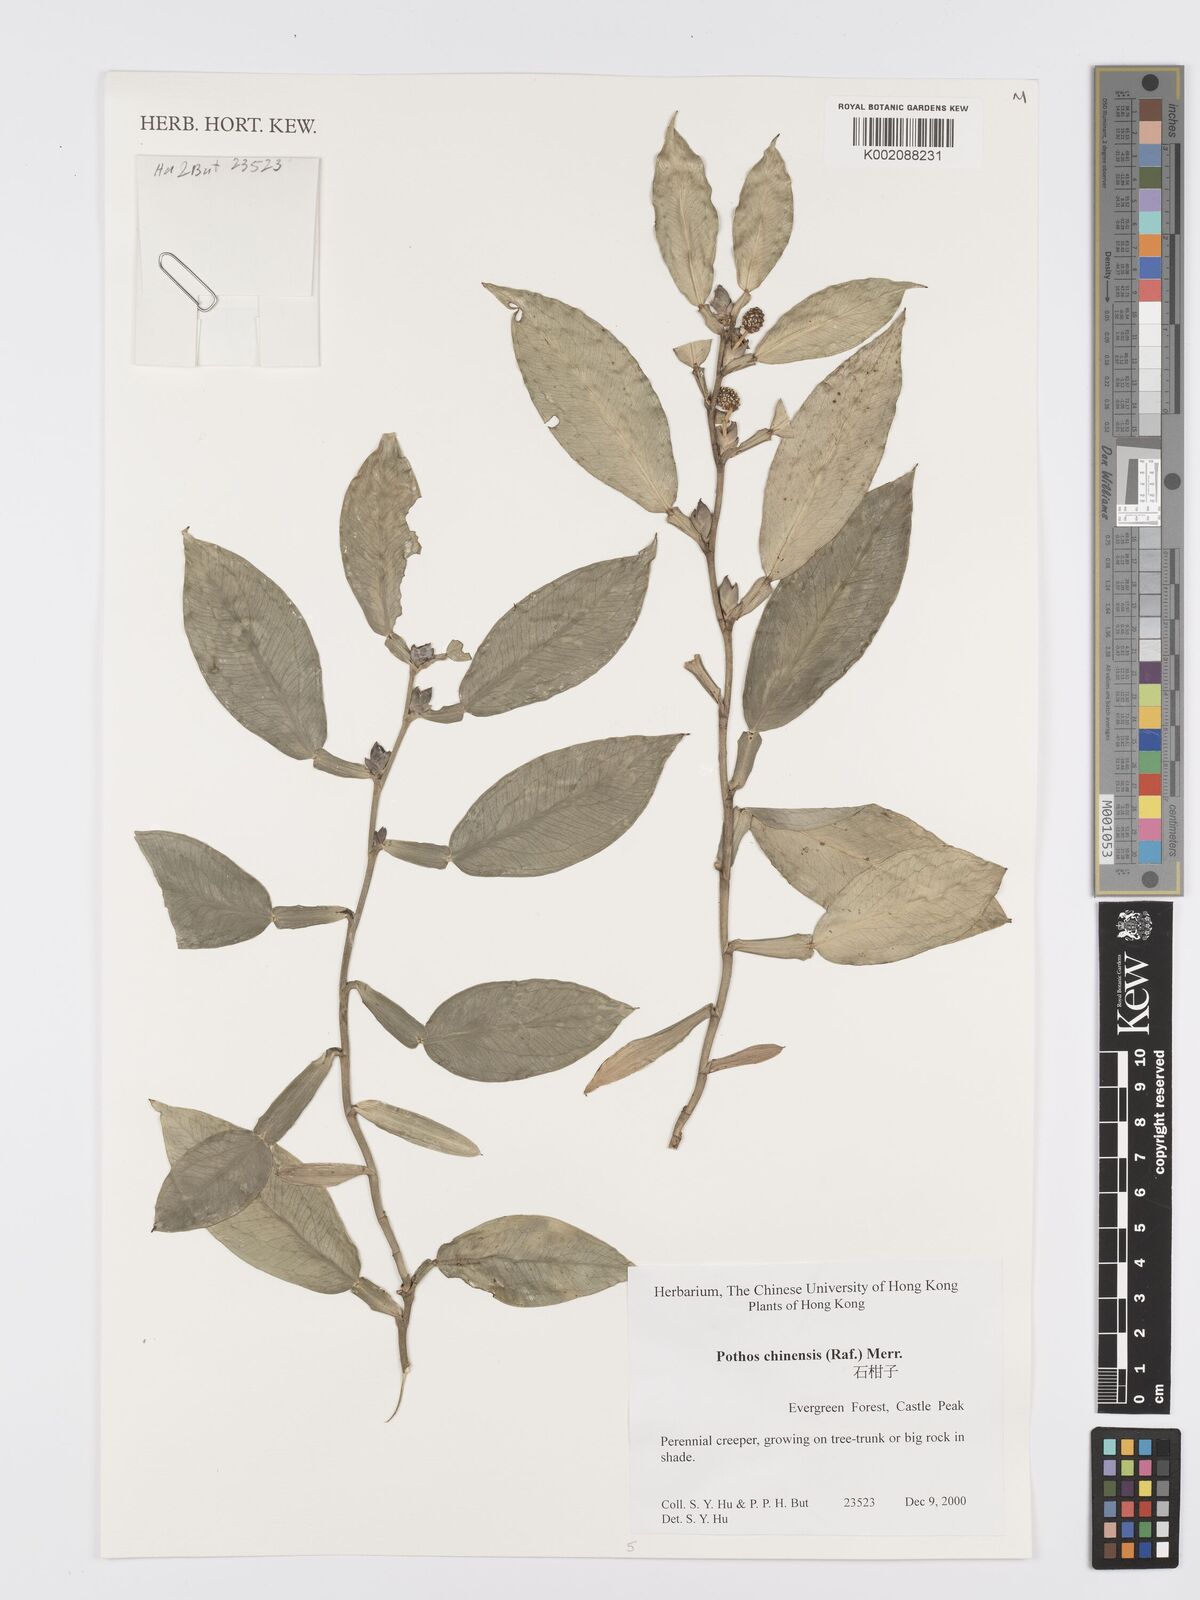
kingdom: Plantae
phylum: Tracheophyta
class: Liliopsida
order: Alismatales
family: Araceae
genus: Pothos
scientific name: Pothos chinensis
